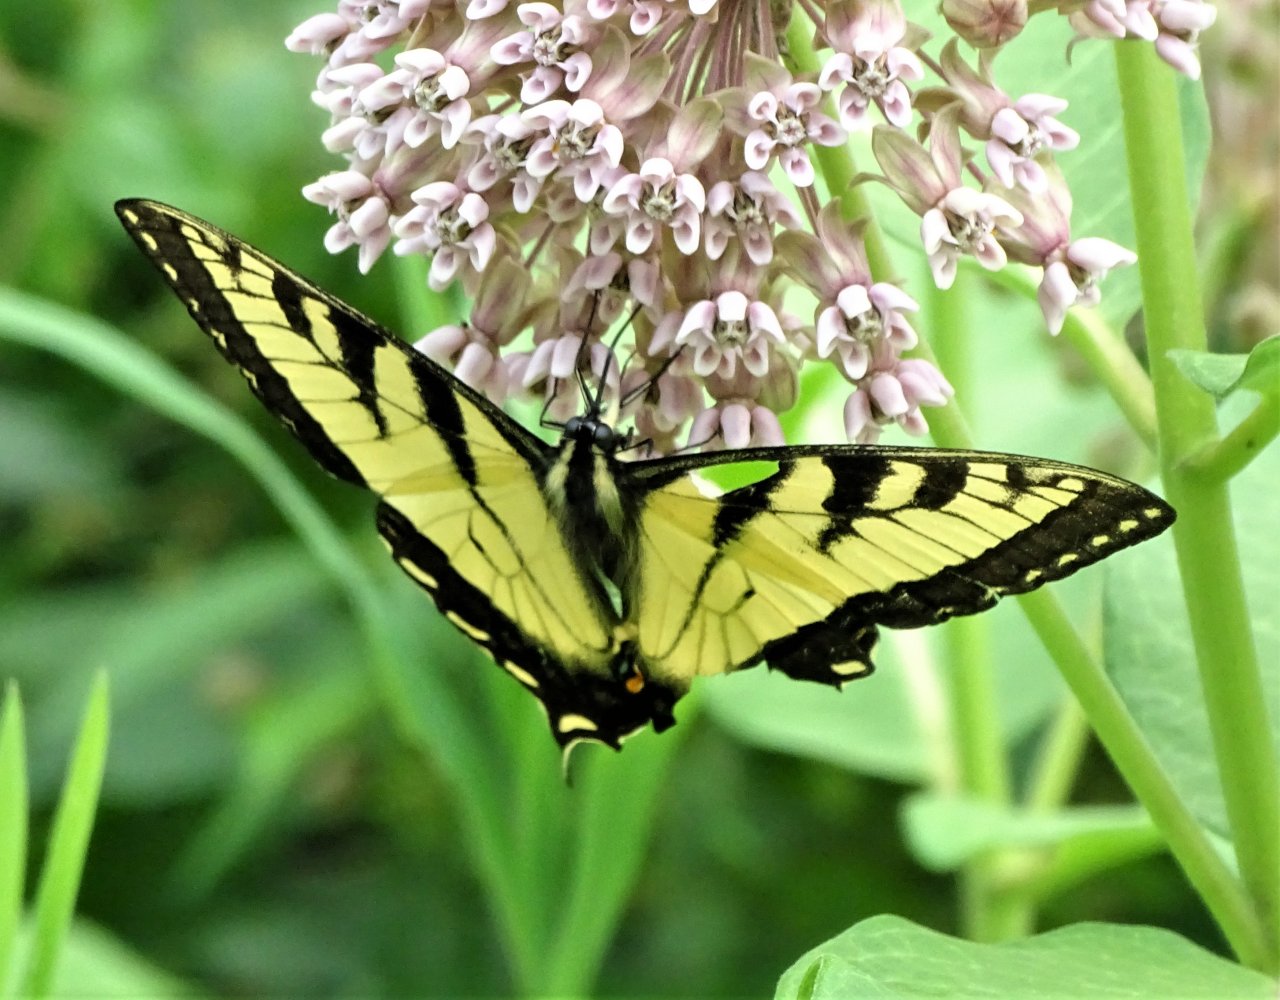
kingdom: Animalia
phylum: Arthropoda
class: Insecta
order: Lepidoptera
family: Papilionidae
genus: Pterourus
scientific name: Pterourus canadensis
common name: Canadian Tiger Swallowtail
